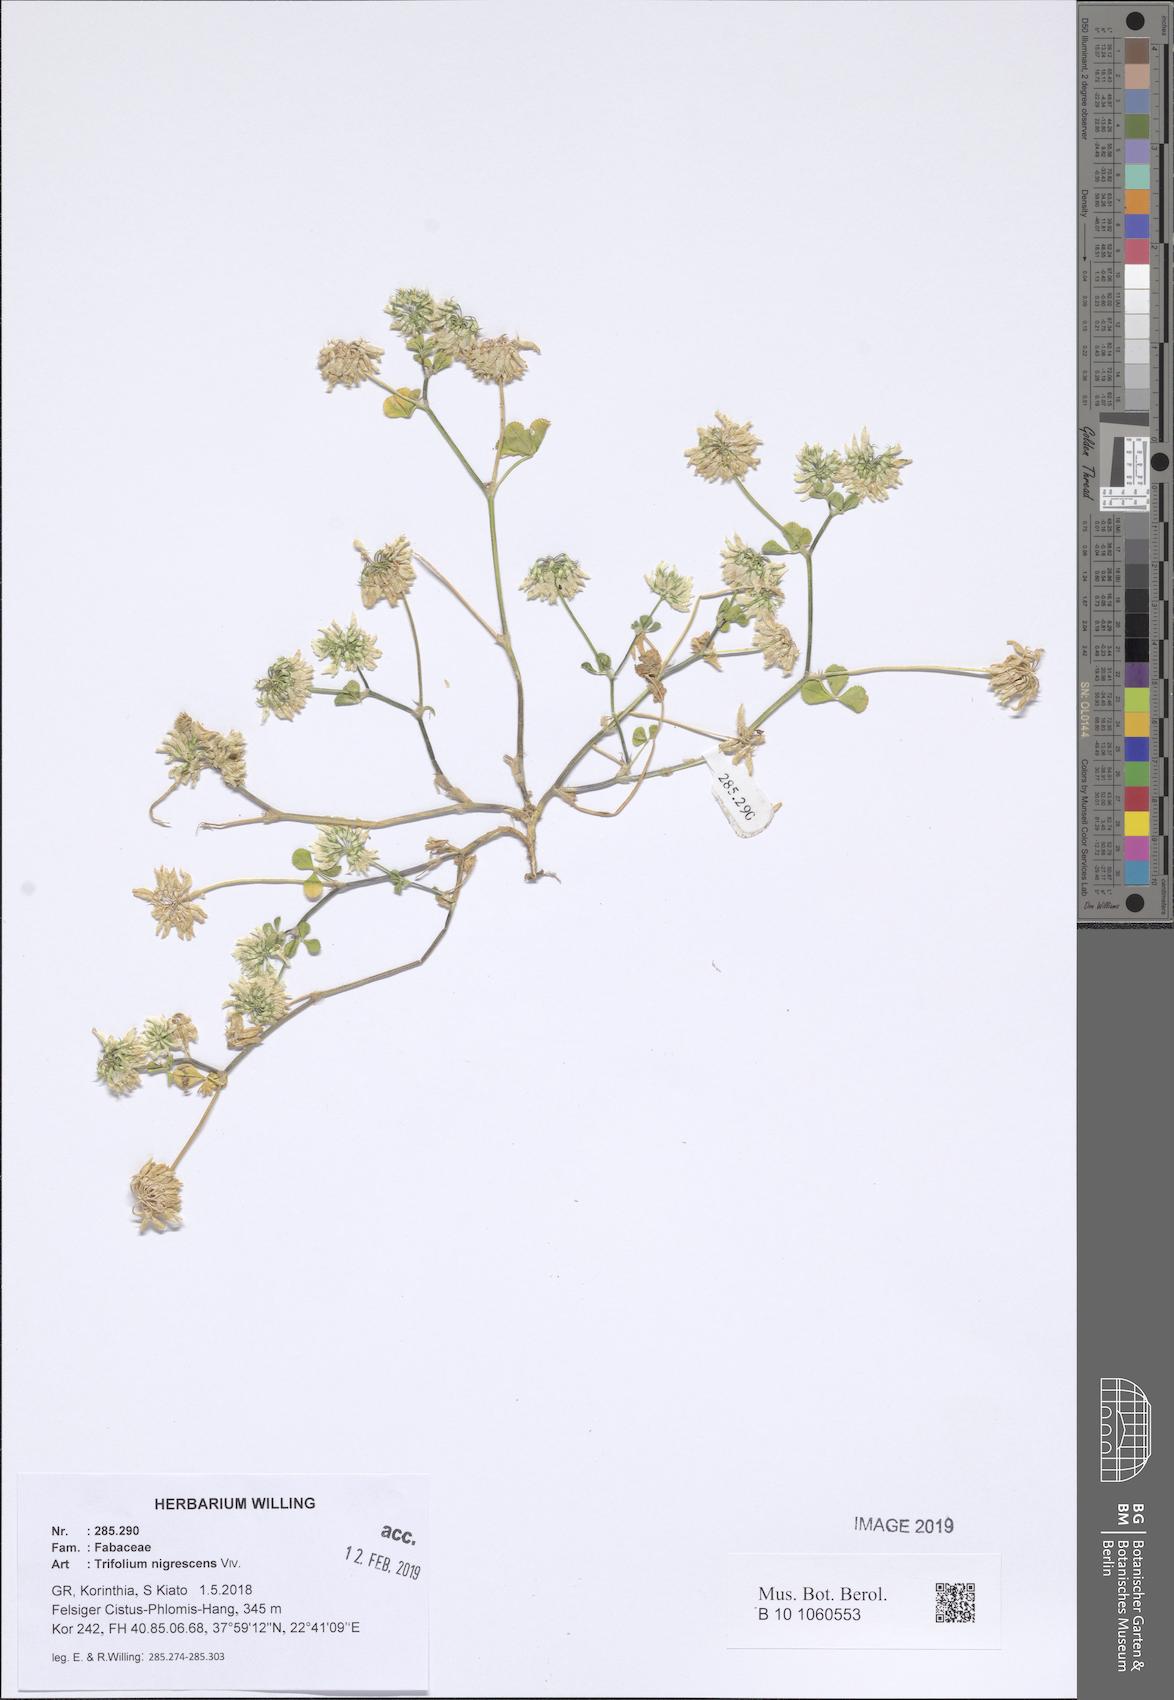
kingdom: Plantae
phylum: Tracheophyta
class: Magnoliopsida
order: Fabales
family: Fabaceae
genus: Trifolium
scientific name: Trifolium nigrescens
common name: Small white clover
